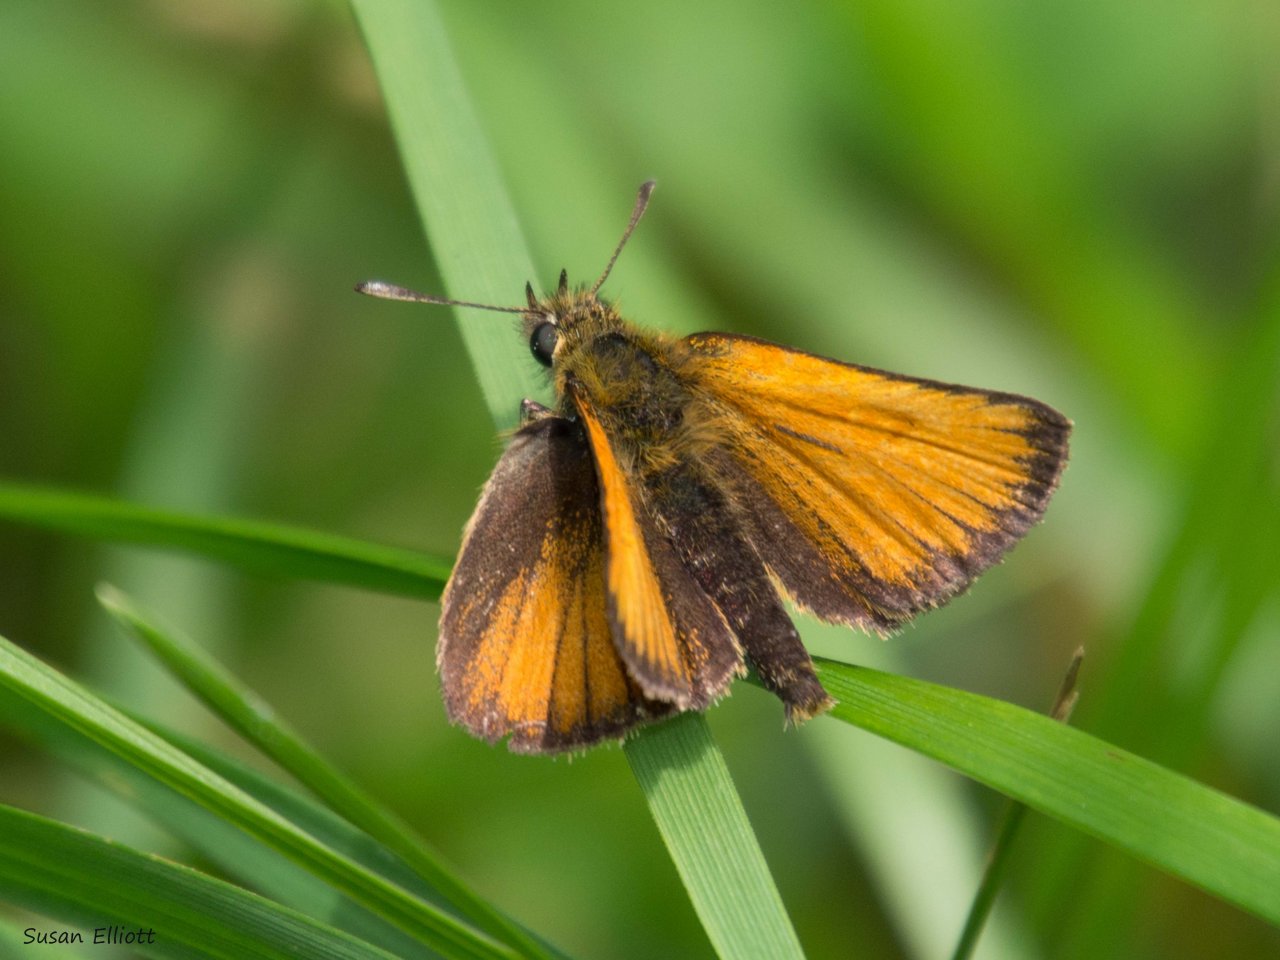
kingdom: Animalia
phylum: Arthropoda
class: Insecta
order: Lepidoptera
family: Hesperiidae
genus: Thymelicus
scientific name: Thymelicus lineola
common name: European Skipper
